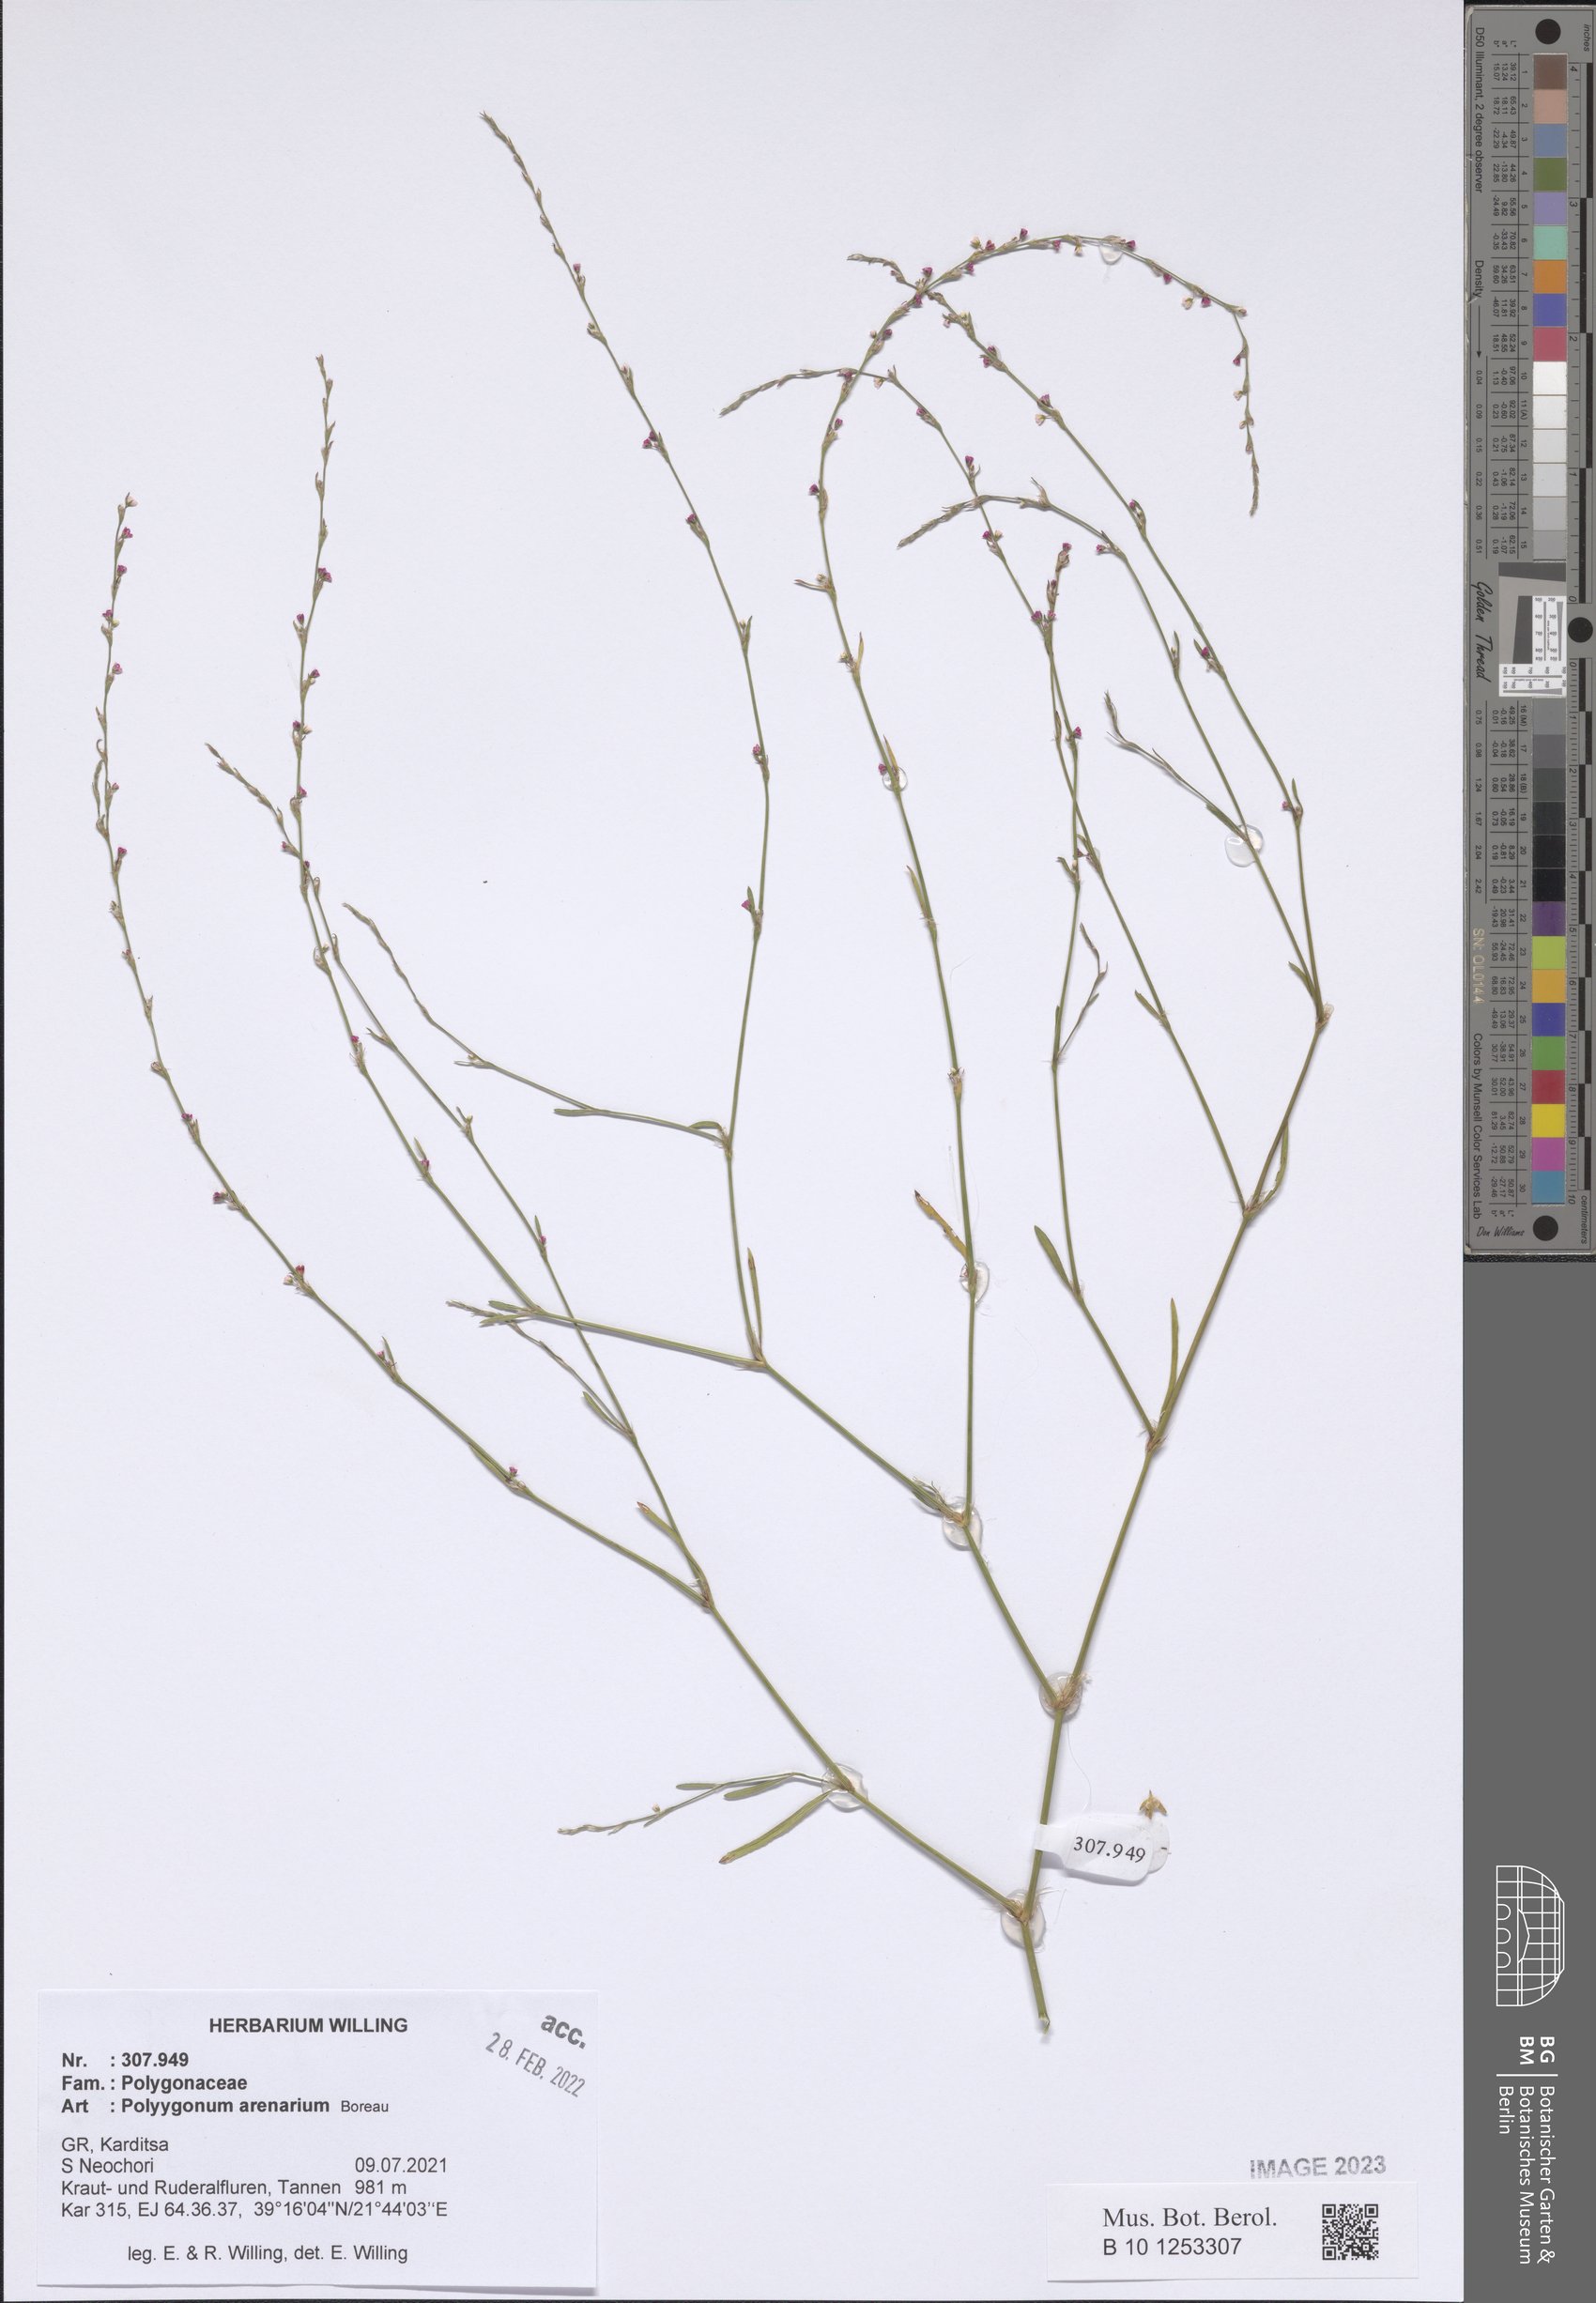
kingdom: Plantae
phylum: Tracheophyta
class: Magnoliopsida
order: Caryophyllales
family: Polygonaceae
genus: Polygonum
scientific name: Polygonum arenarium
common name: Lesser red-knotgrass
